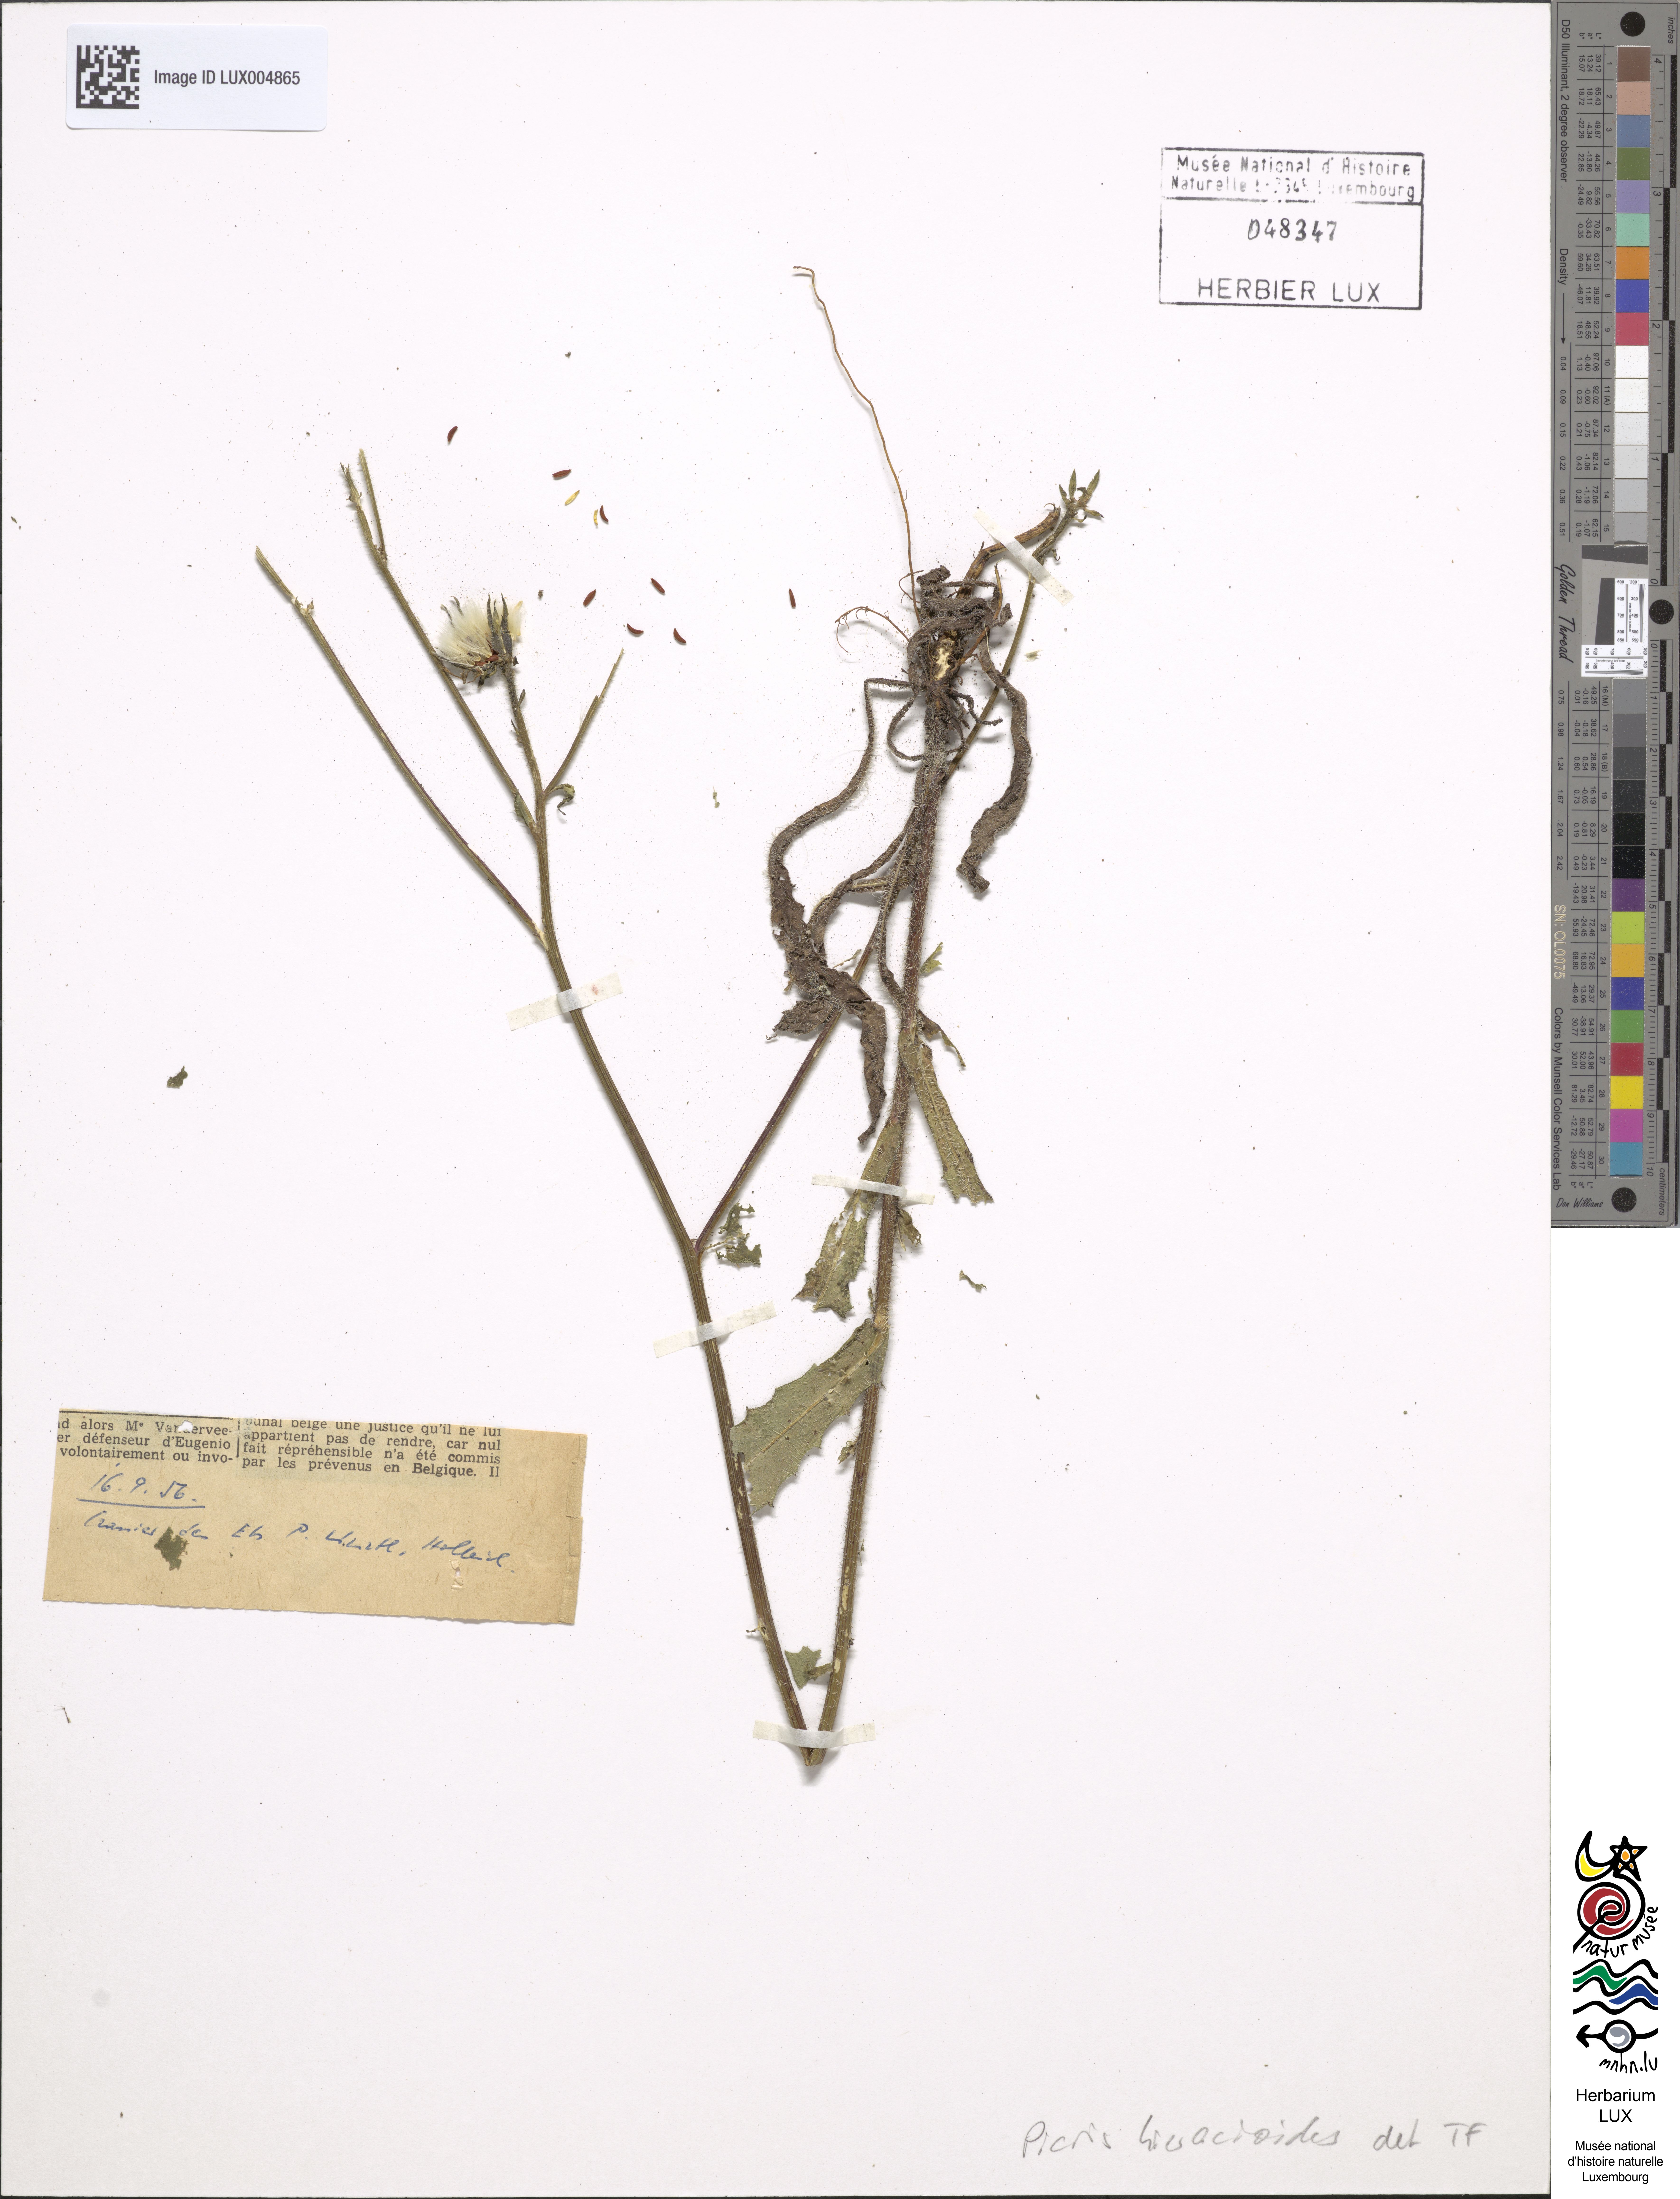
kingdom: Plantae
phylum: Tracheophyta
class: Magnoliopsida
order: Asterales
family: Asteraceae
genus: Picris
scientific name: Picris hieracioides
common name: Hawkweed oxtongue
